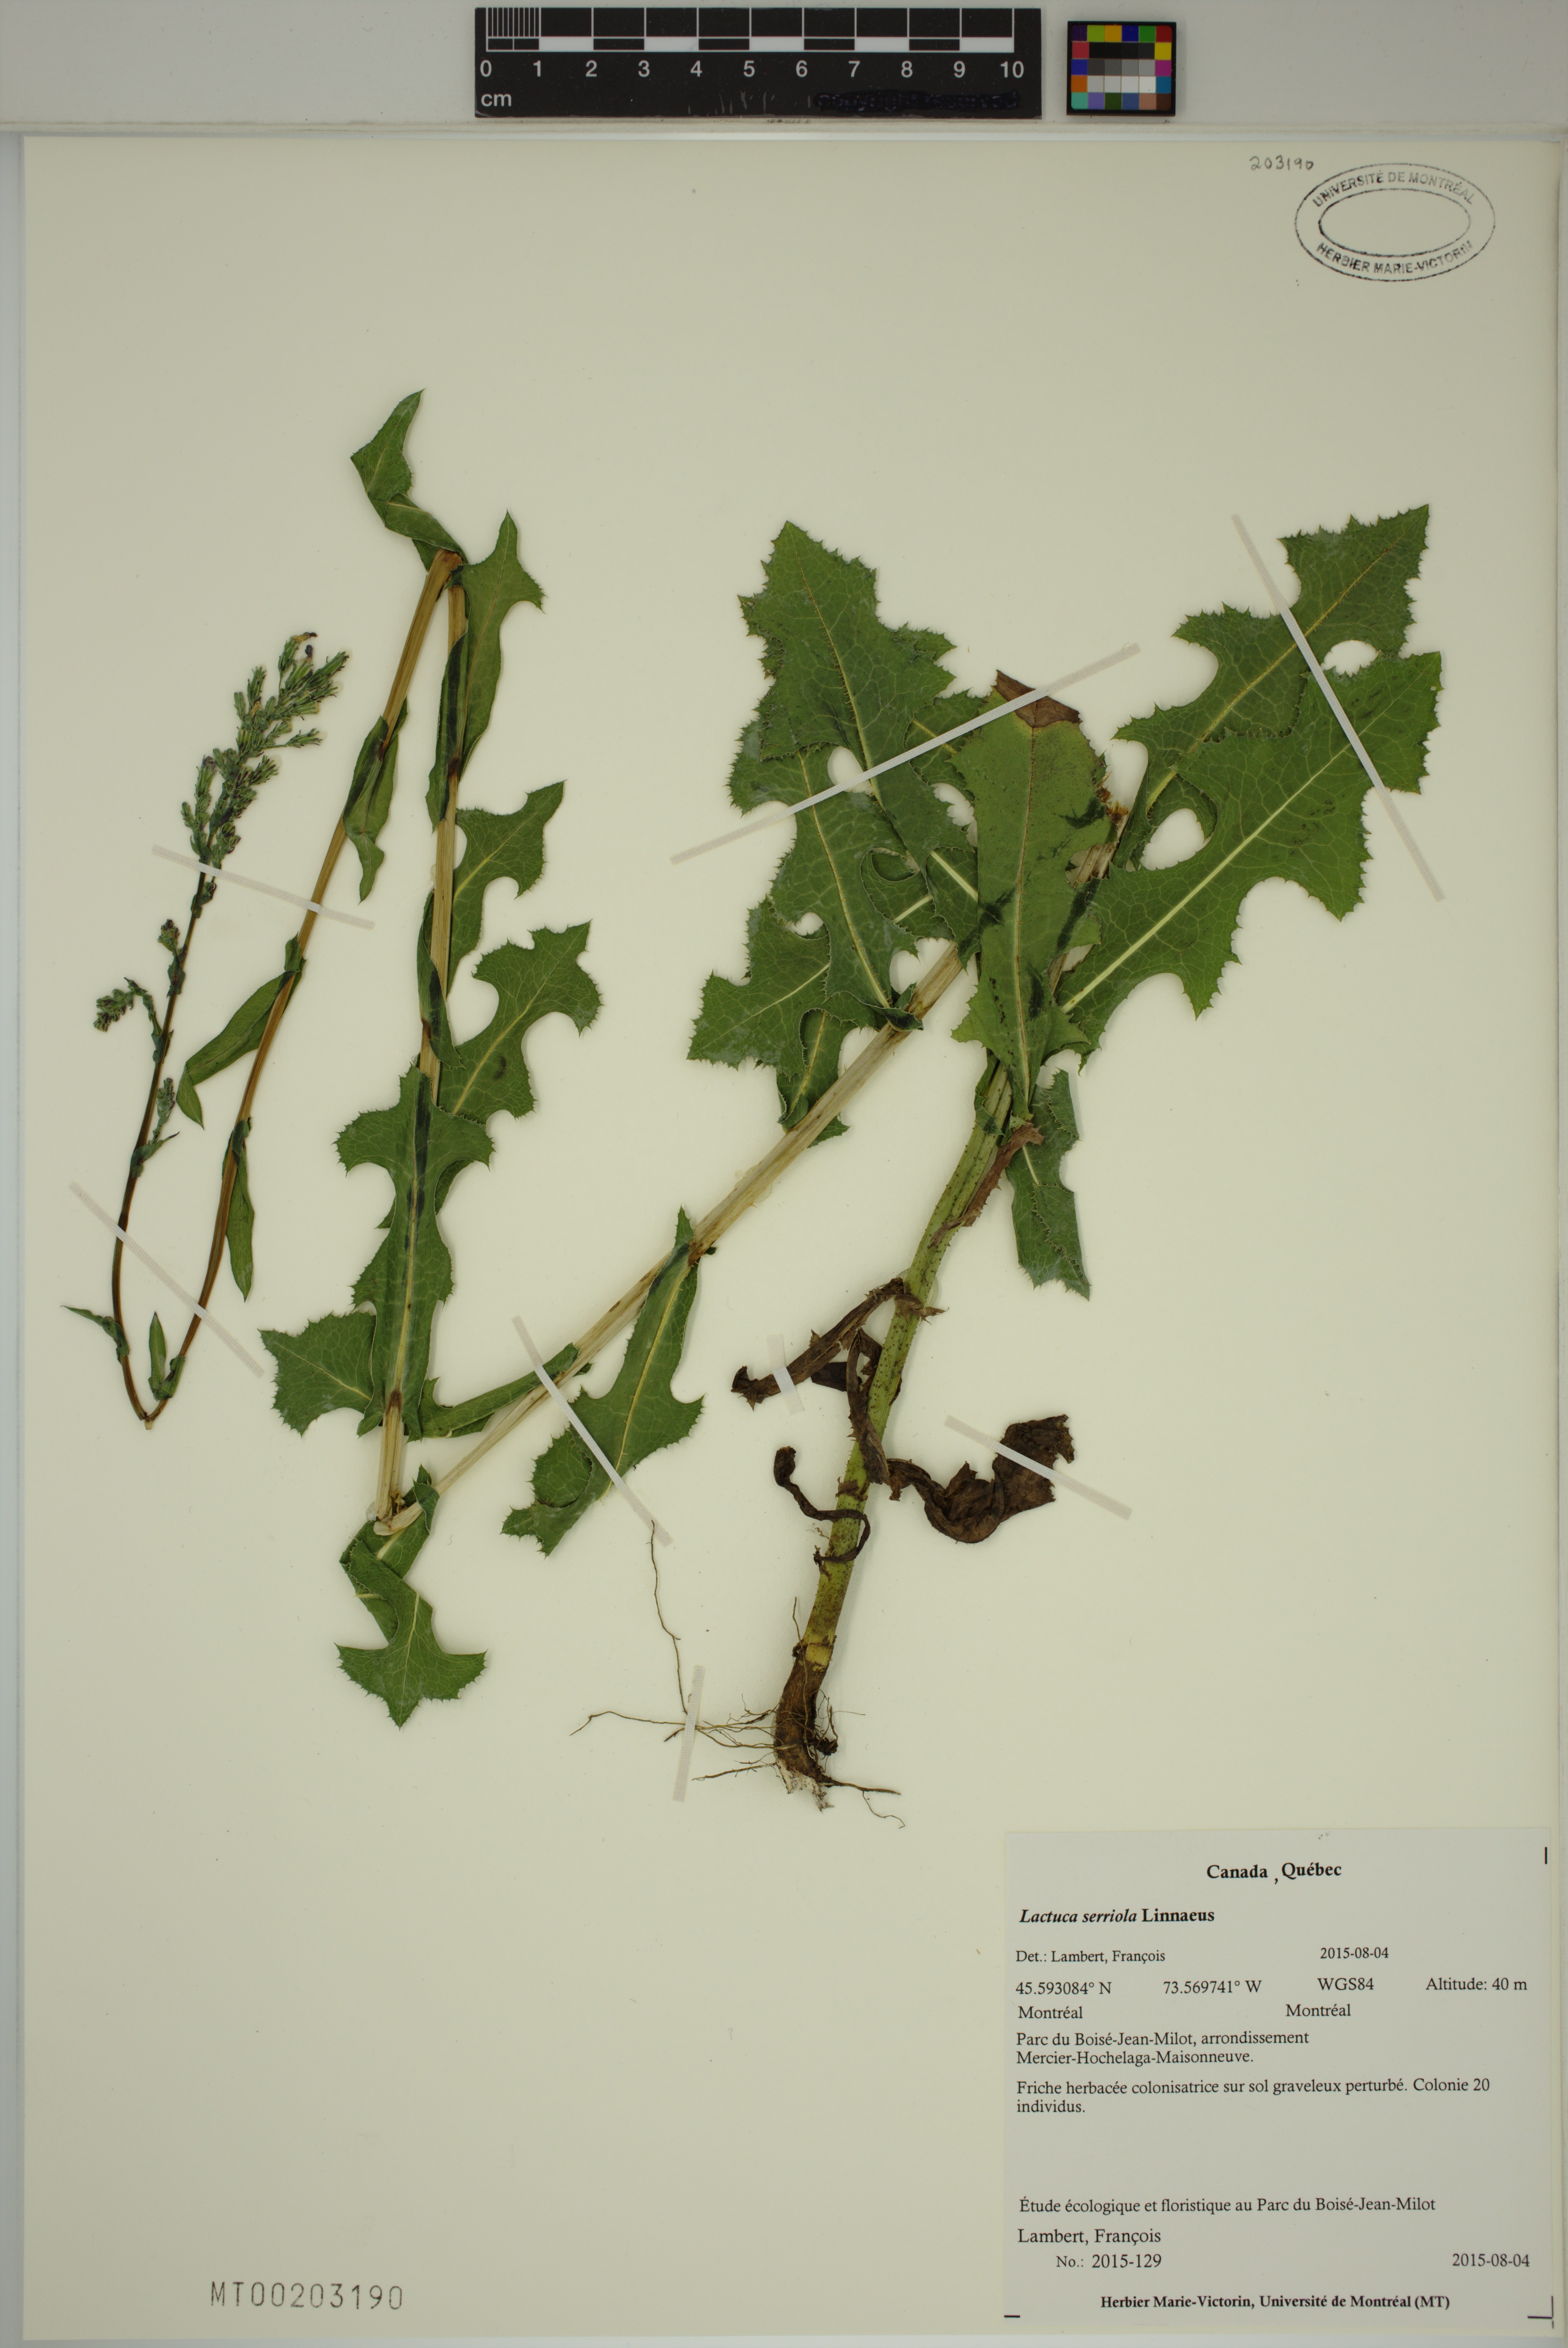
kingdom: Plantae
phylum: Tracheophyta
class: Magnoliopsida
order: Asterales
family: Asteraceae
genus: Lactuca
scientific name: Lactuca serriola
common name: Prickly lettuce
